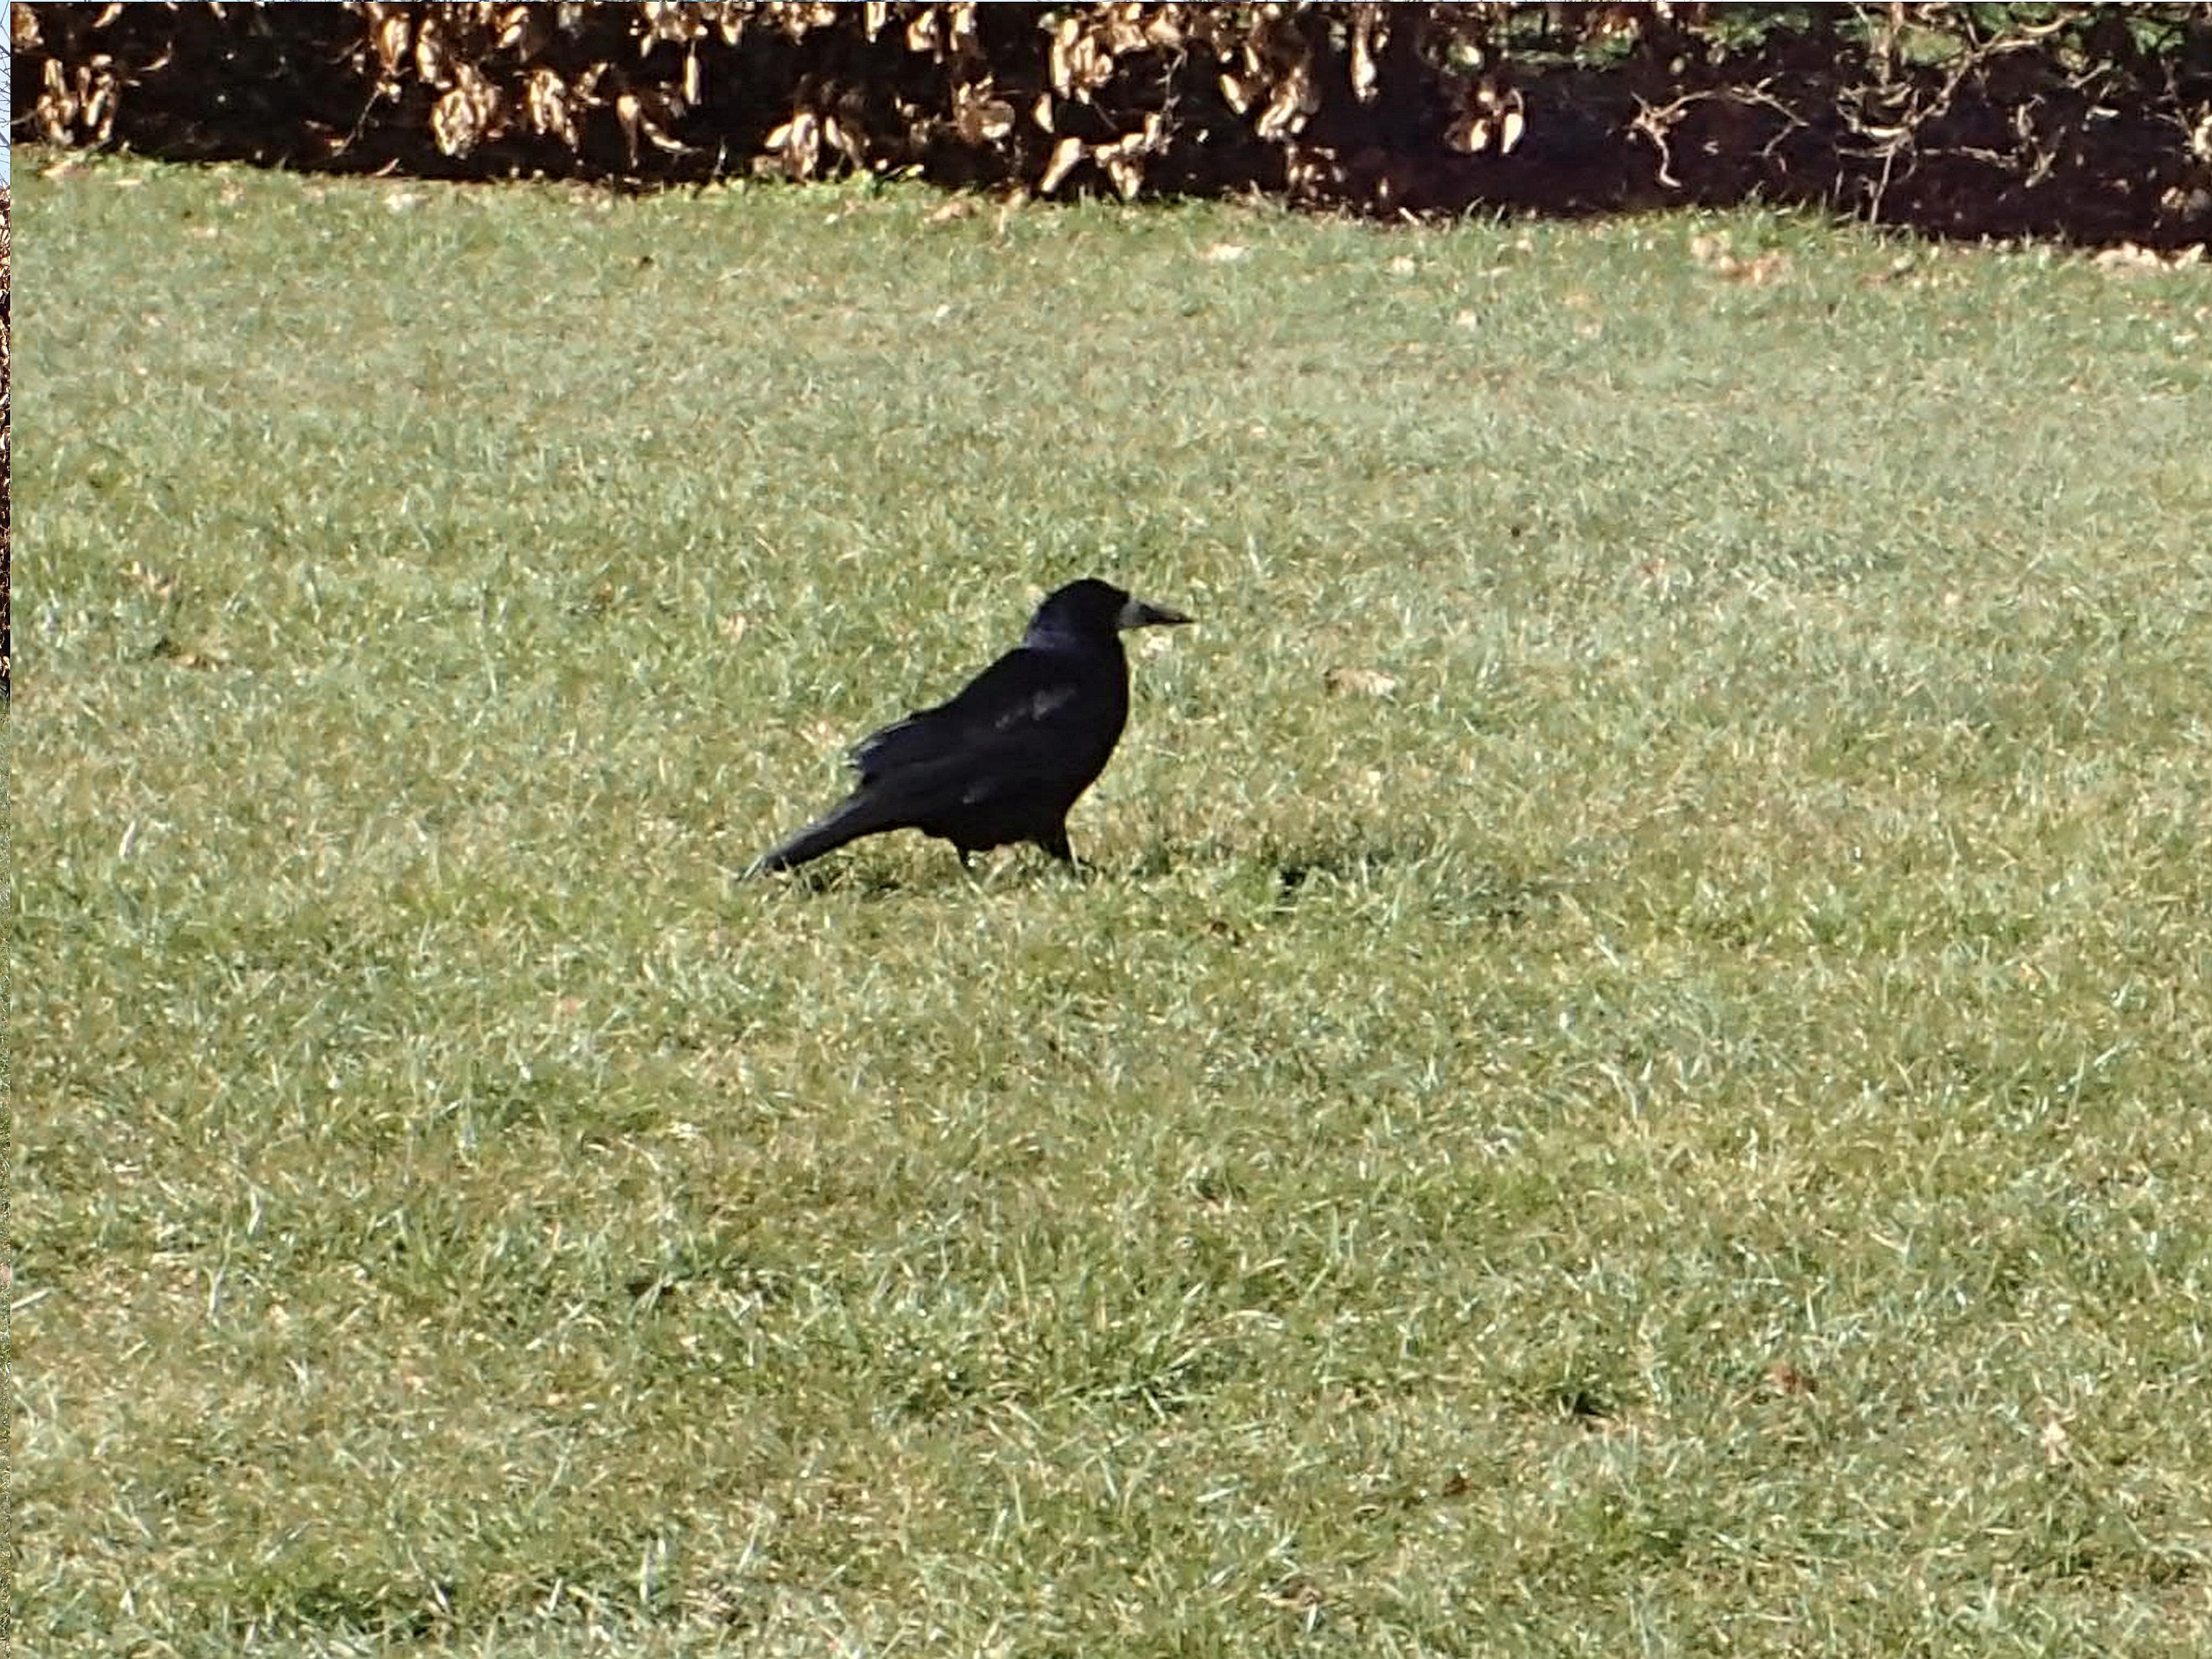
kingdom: Animalia
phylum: Chordata
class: Aves
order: Passeriformes
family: Corvidae
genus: Corvus
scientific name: Corvus frugilegus
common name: Råge
